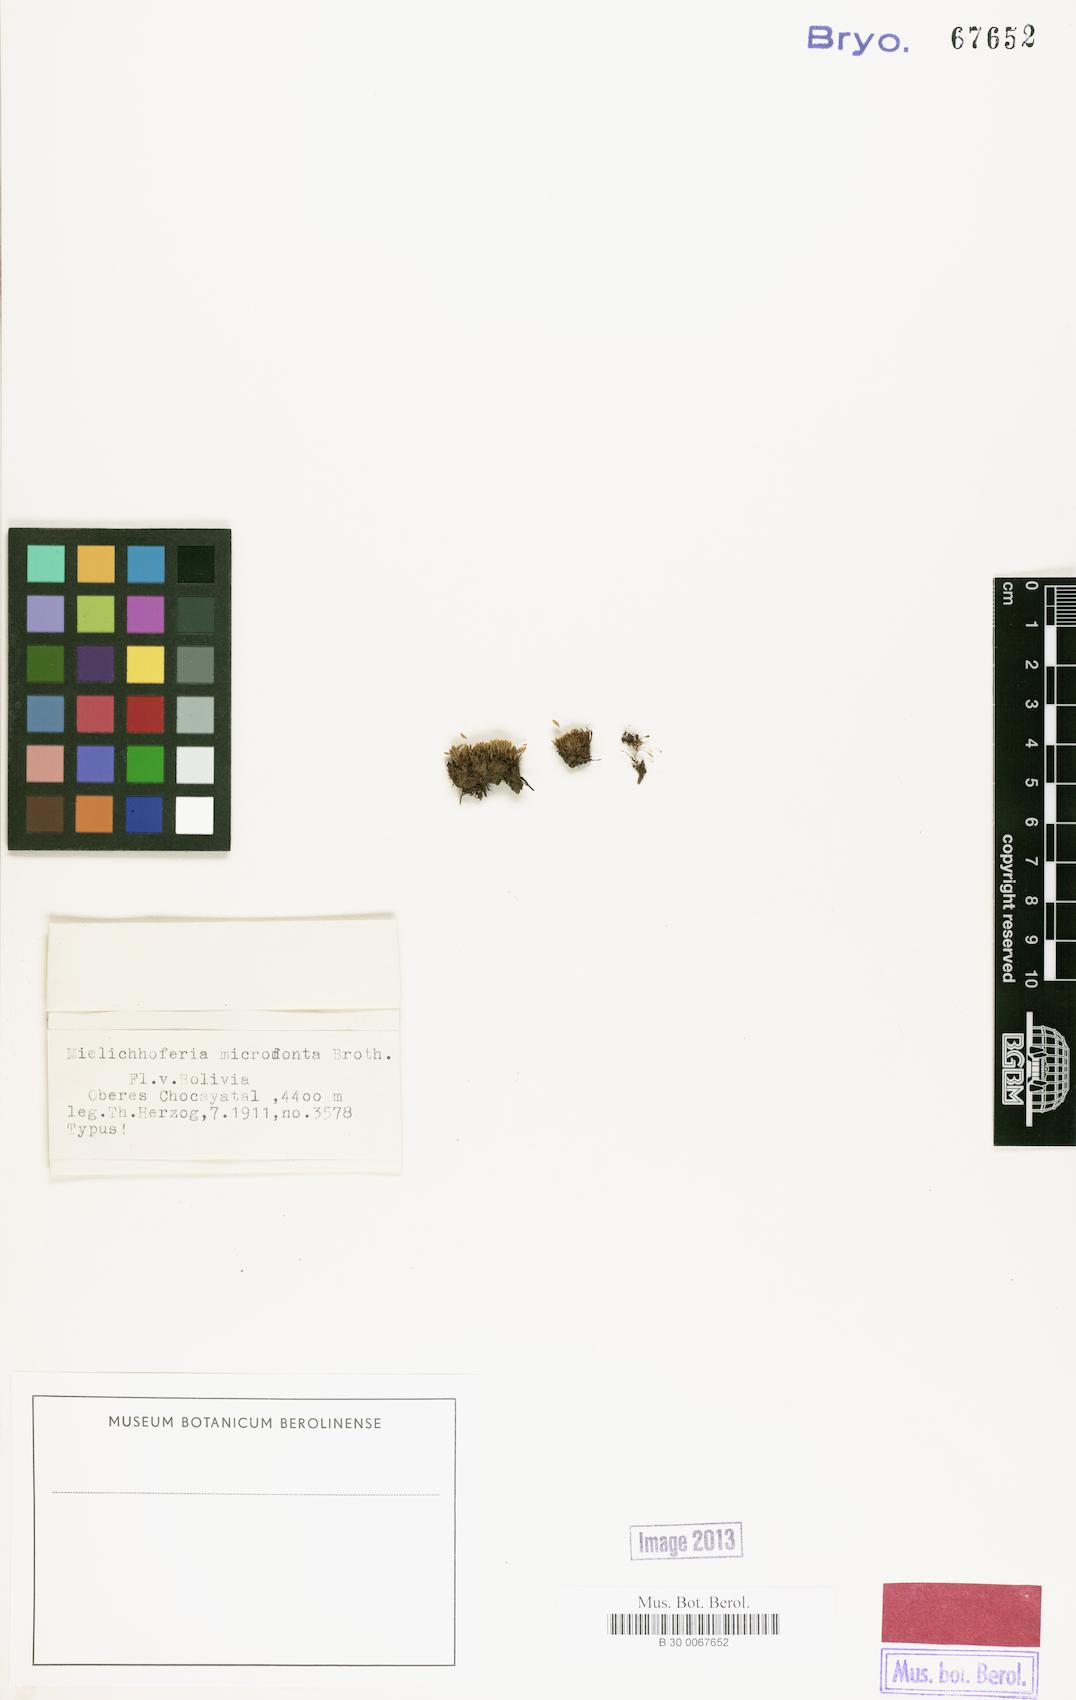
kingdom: Plantae
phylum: Bryophyta
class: Bryopsida
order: Bryales
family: Mniaceae
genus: Schizymenium
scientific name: Schizymenium nanum
